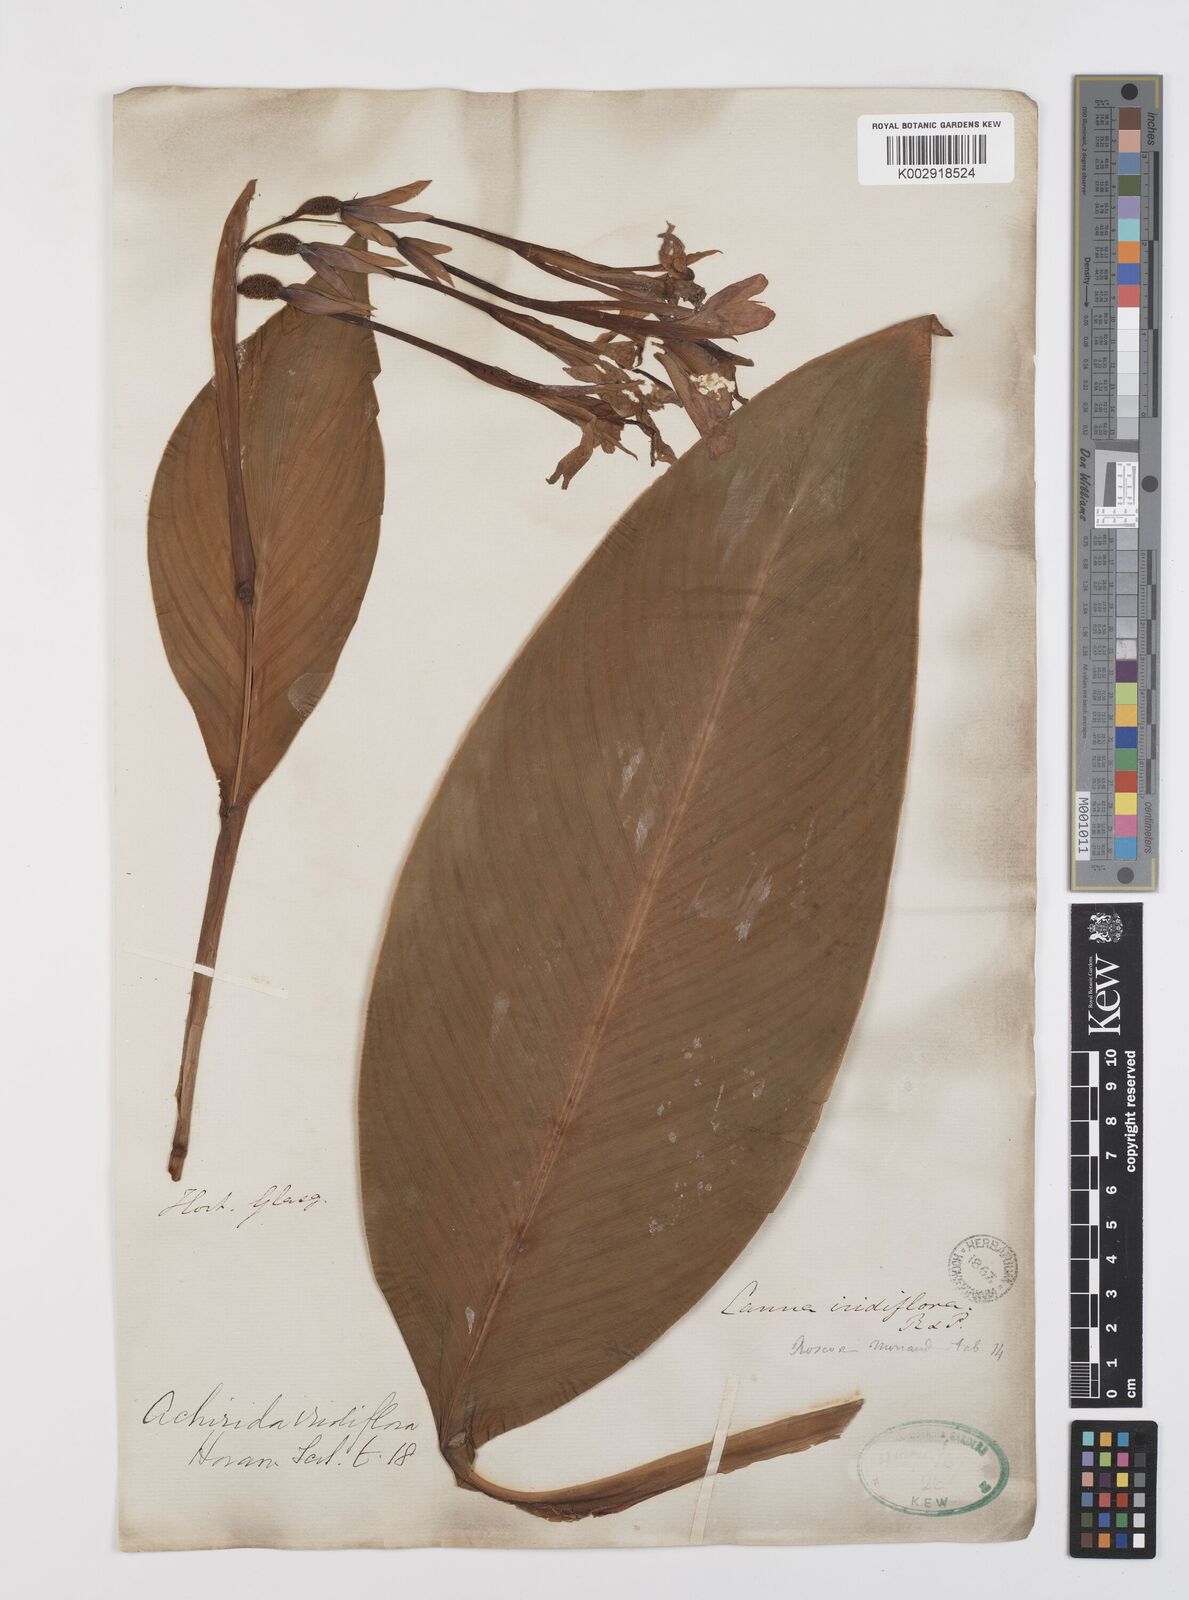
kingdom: Plantae
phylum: Tracheophyta
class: Liliopsida
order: Zingiberales
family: Cannaceae
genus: Canna
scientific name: Canna iridiflora
